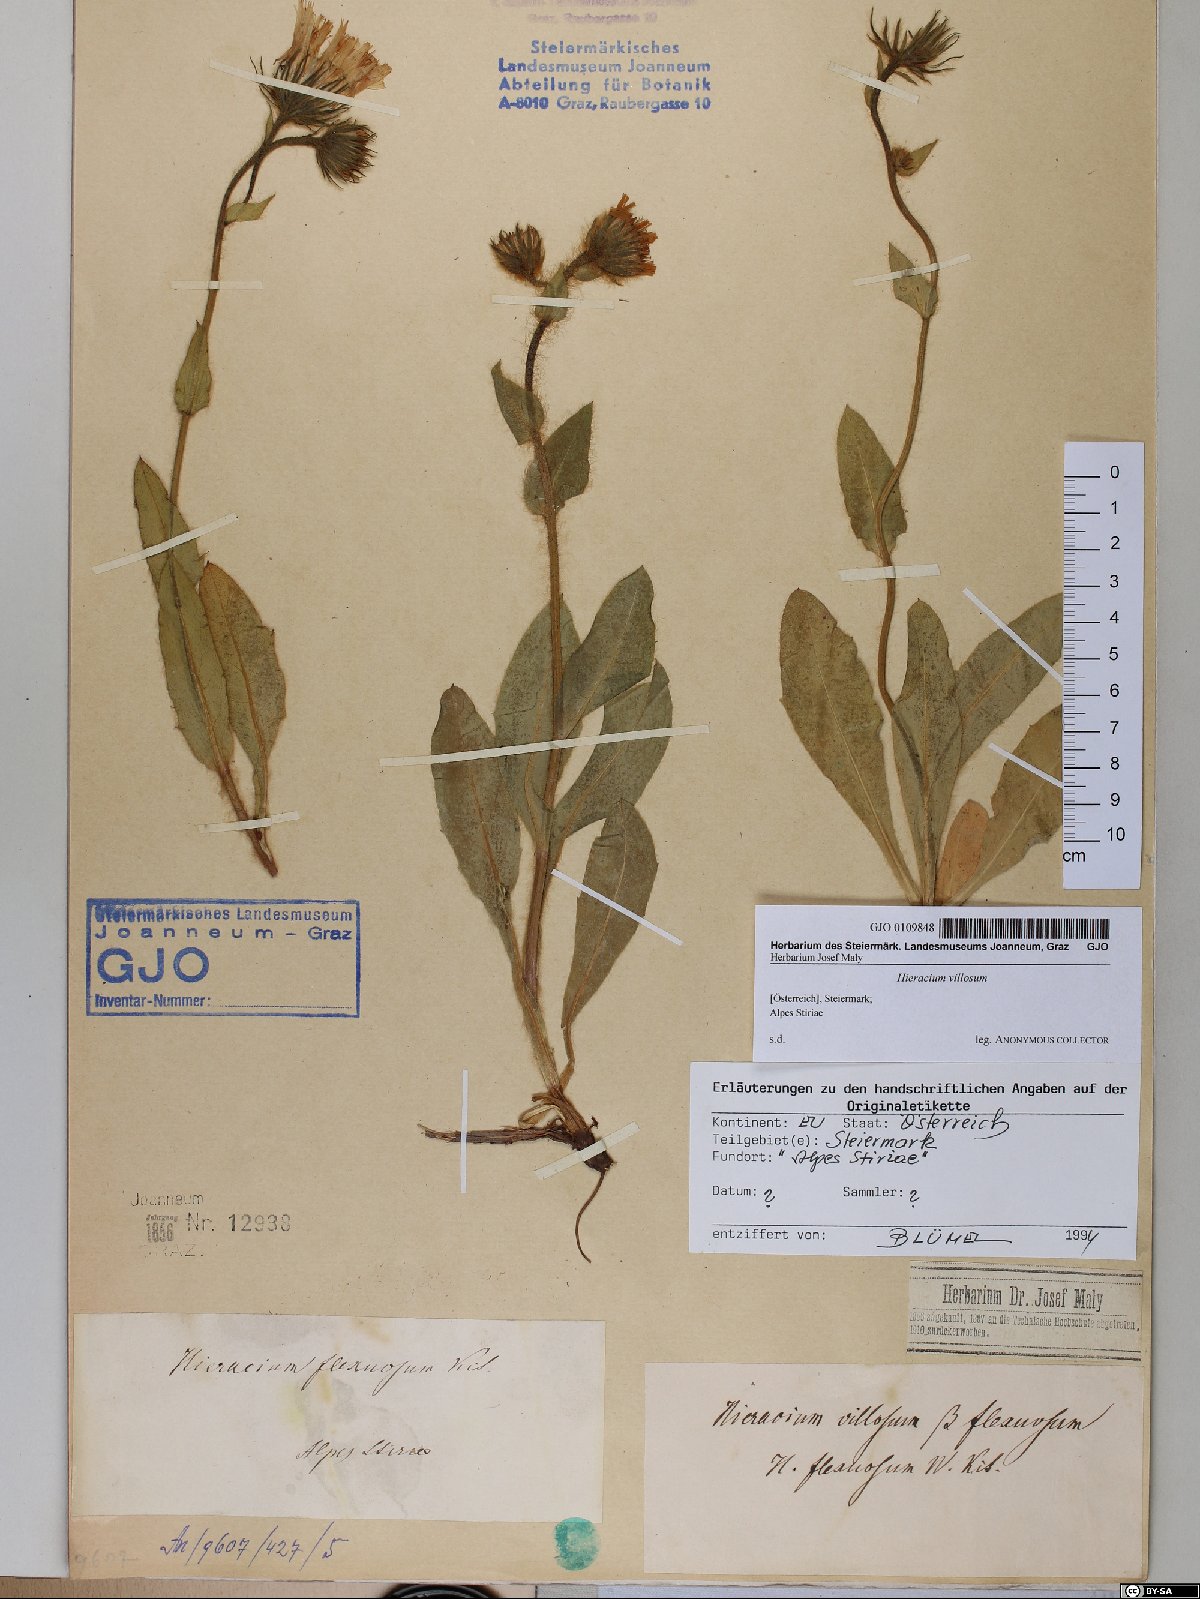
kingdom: Plantae
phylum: Tracheophyta
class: Magnoliopsida
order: Asterales
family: Asteraceae
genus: Hieracium
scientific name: Hieracium villosum
